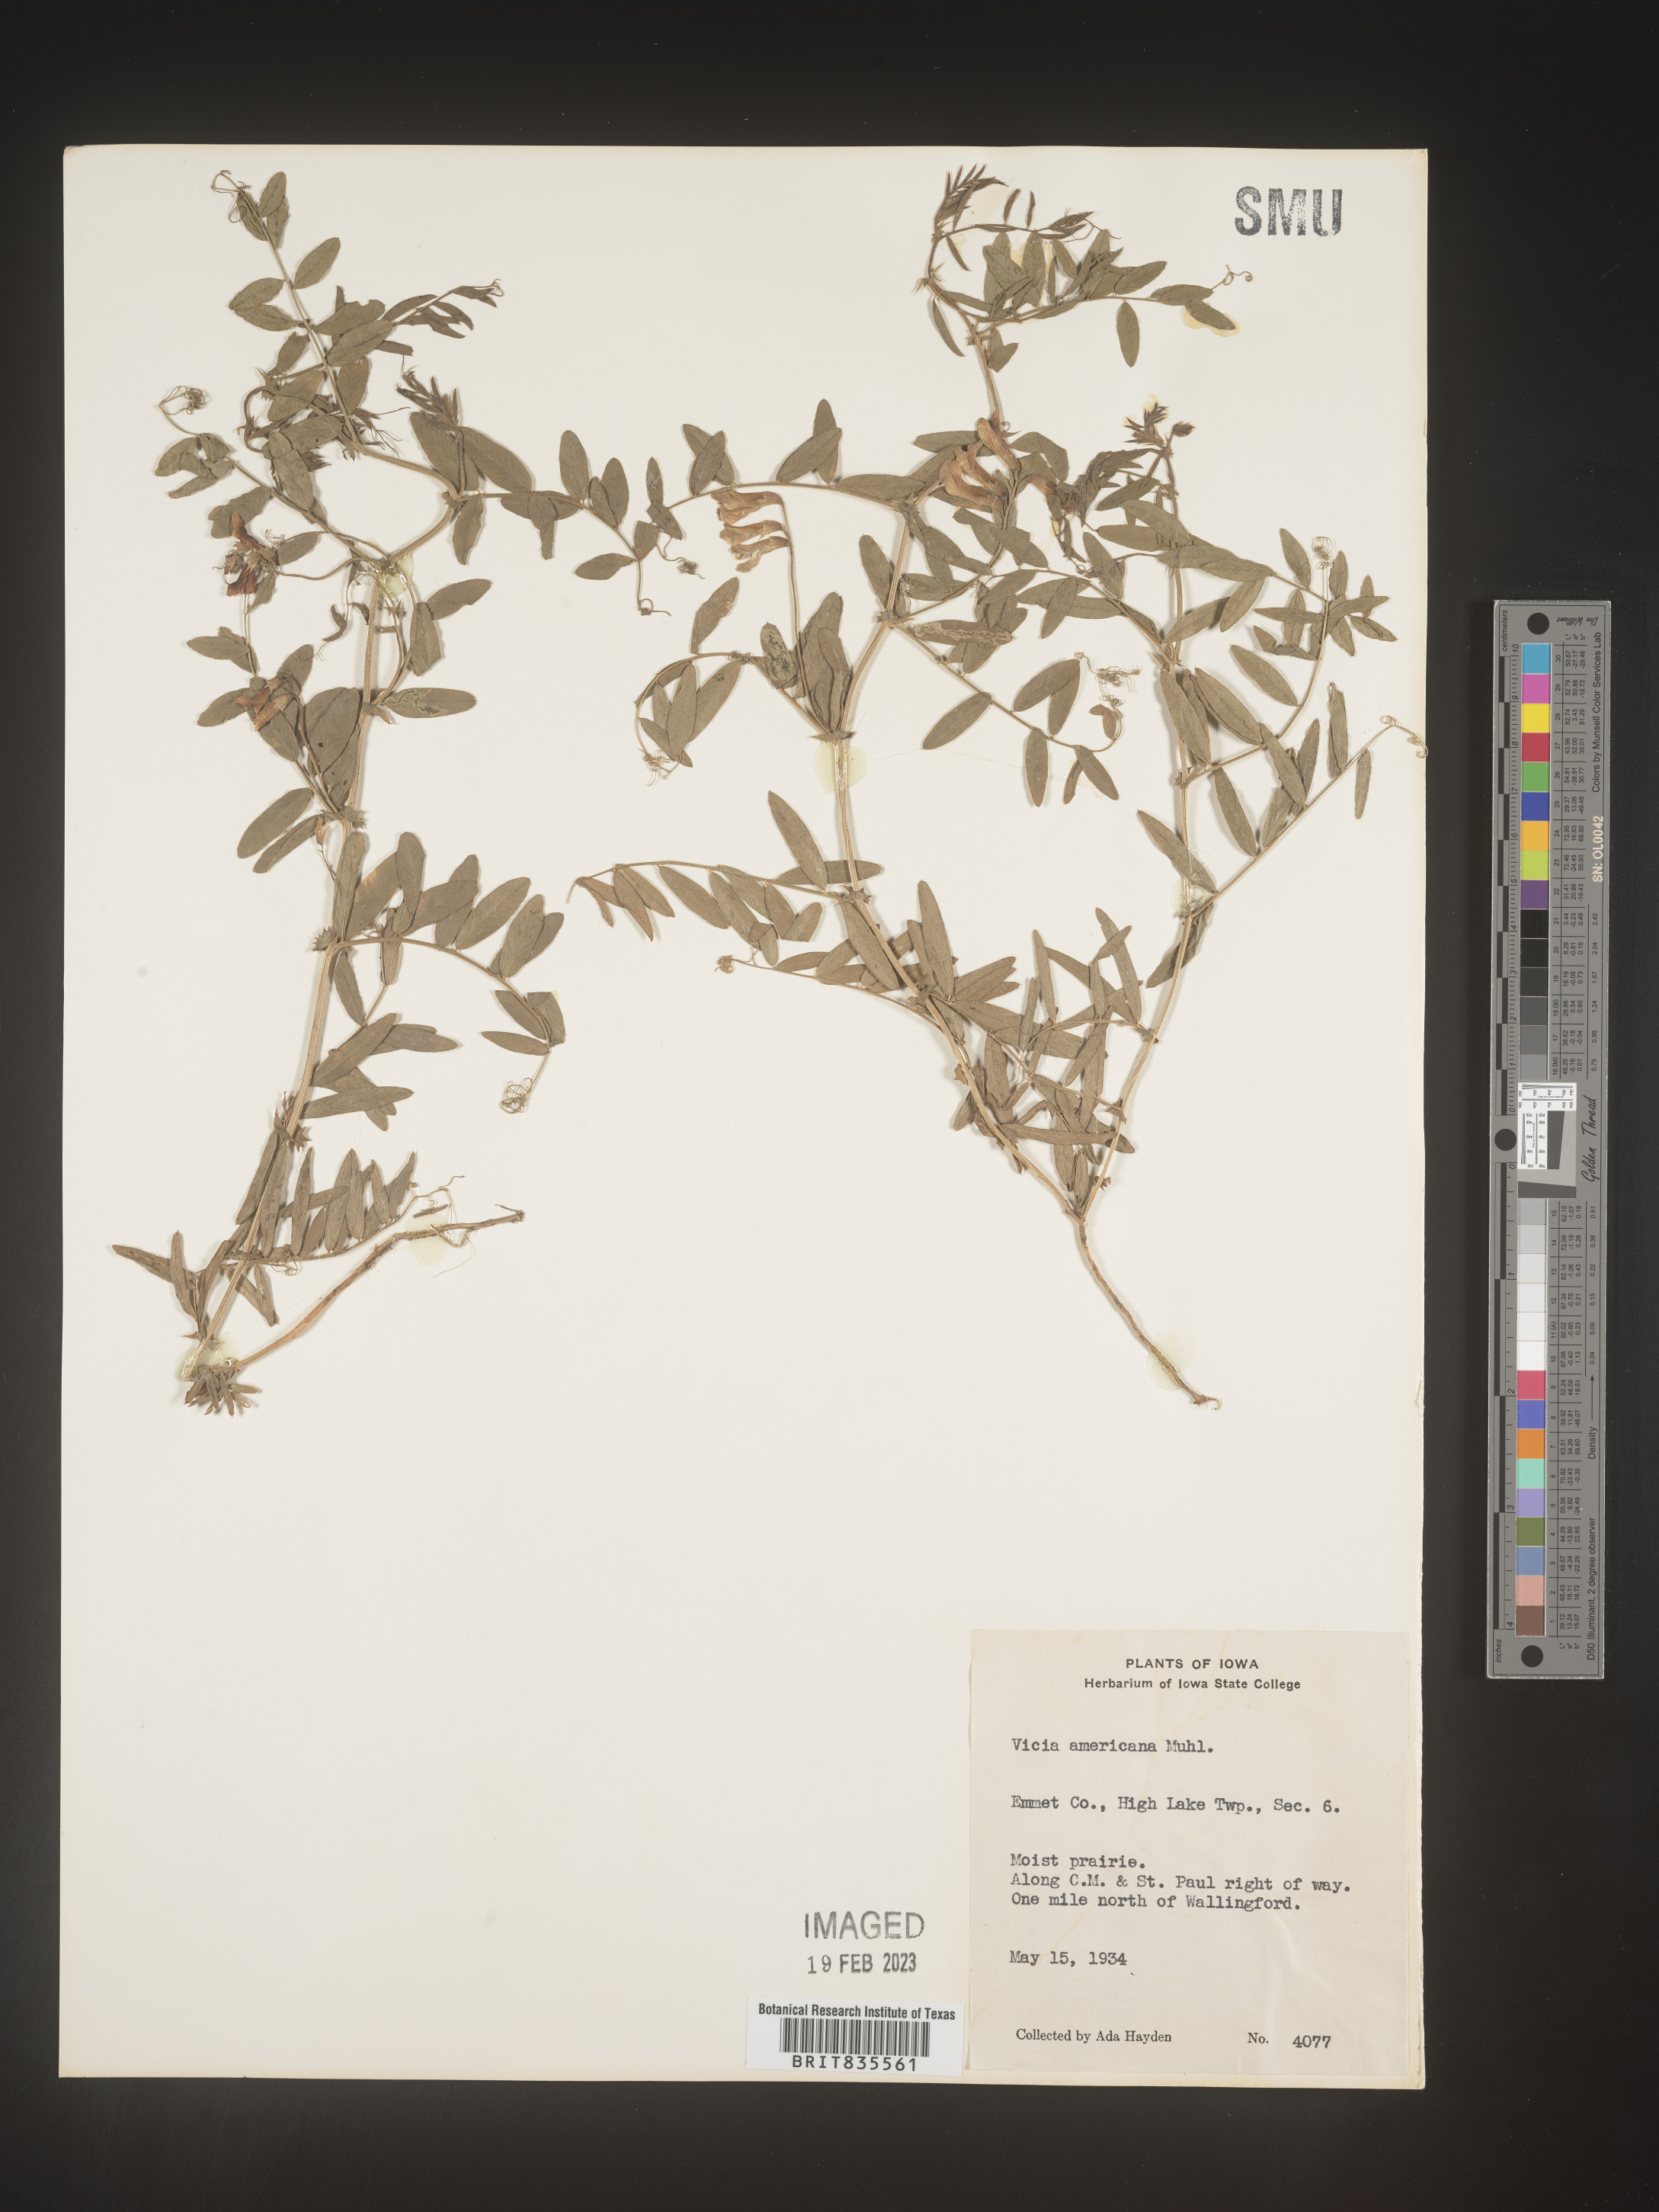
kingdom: Plantae
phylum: Tracheophyta
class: Magnoliopsida
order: Fabales
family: Fabaceae
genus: Vicia
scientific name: Vicia americana
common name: American vetch
